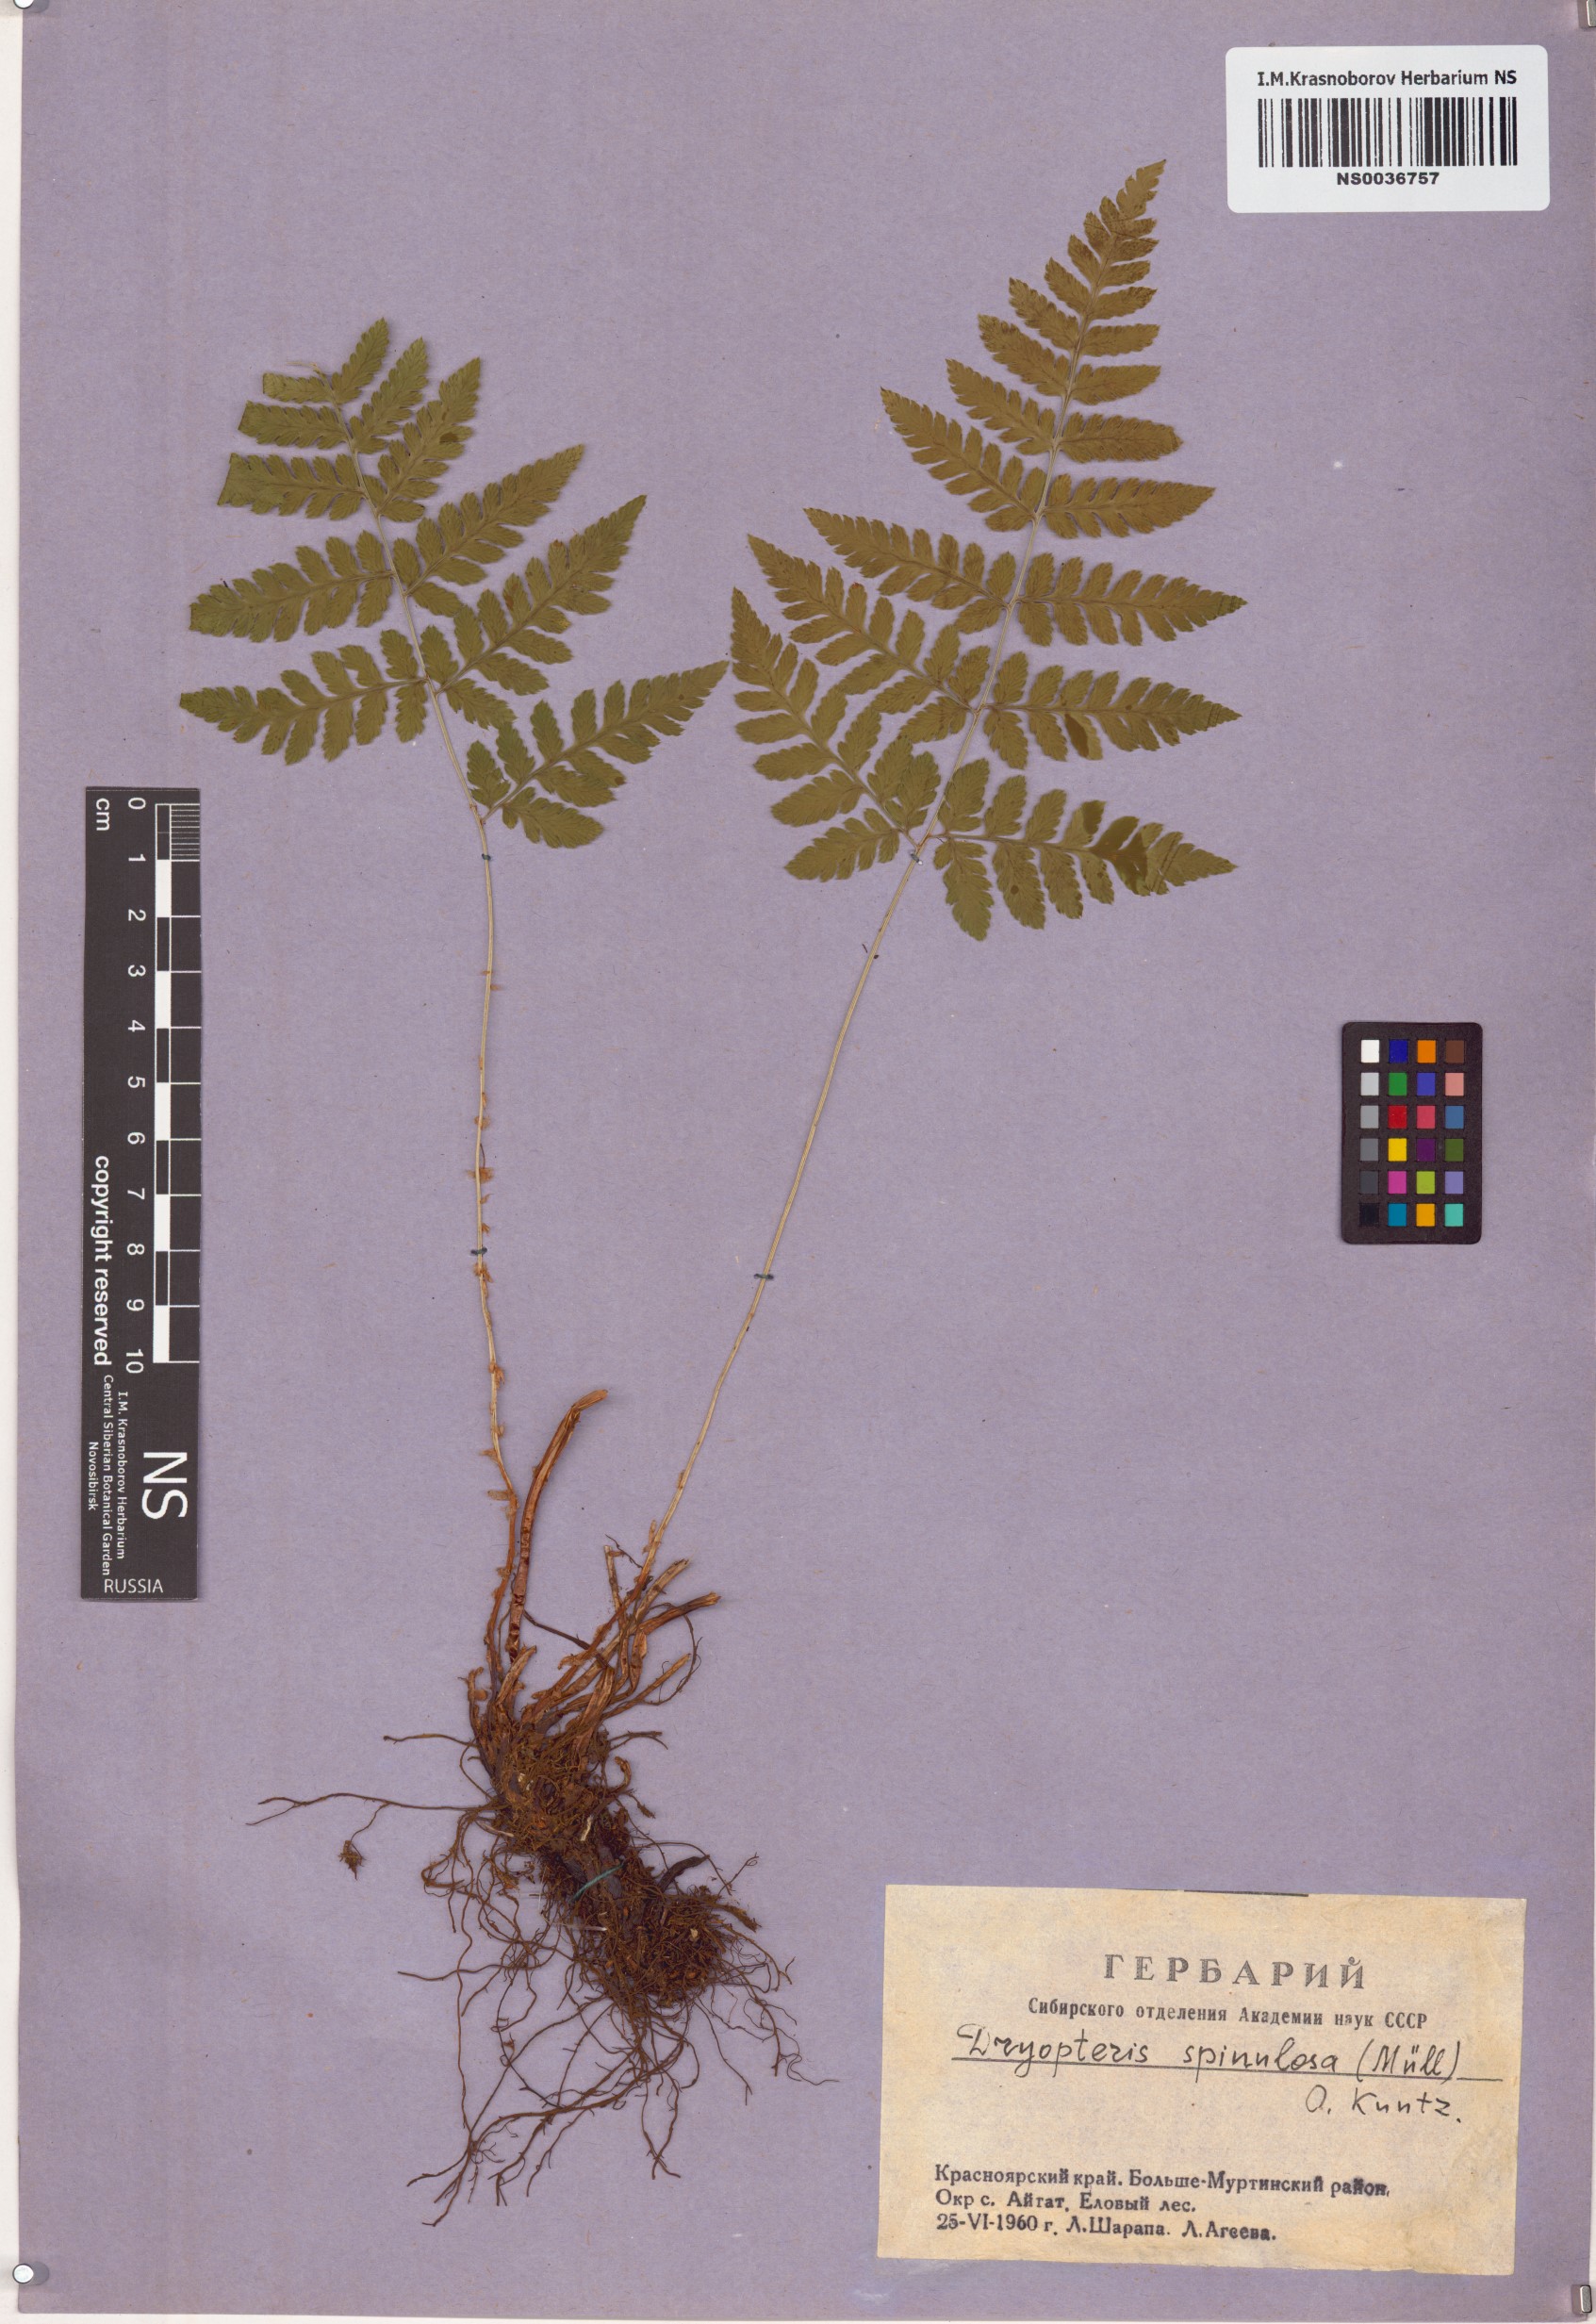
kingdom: Plantae
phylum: Tracheophyta
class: Polypodiopsida
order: Polypodiales
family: Dryopteridaceae
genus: Dryopteris
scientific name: Dryopteris carthusiana
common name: Narrow buckler-fern
